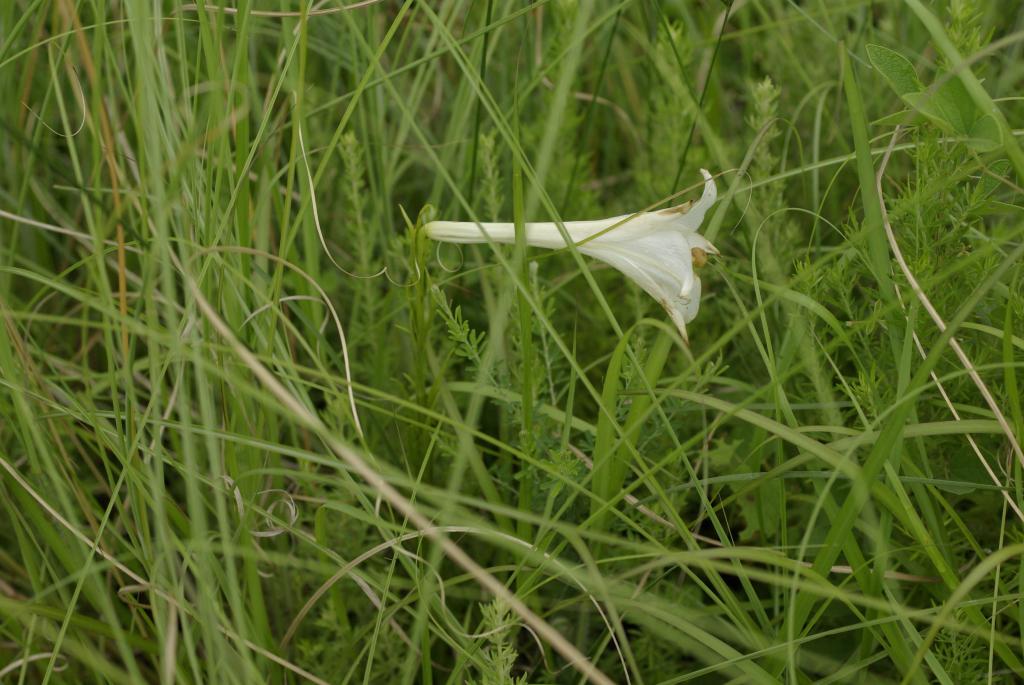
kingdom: Plantae
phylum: Tracheophyta
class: Liliopsida
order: Liliales
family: Liliaceae
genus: Lilium
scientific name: Lilium formosanum
